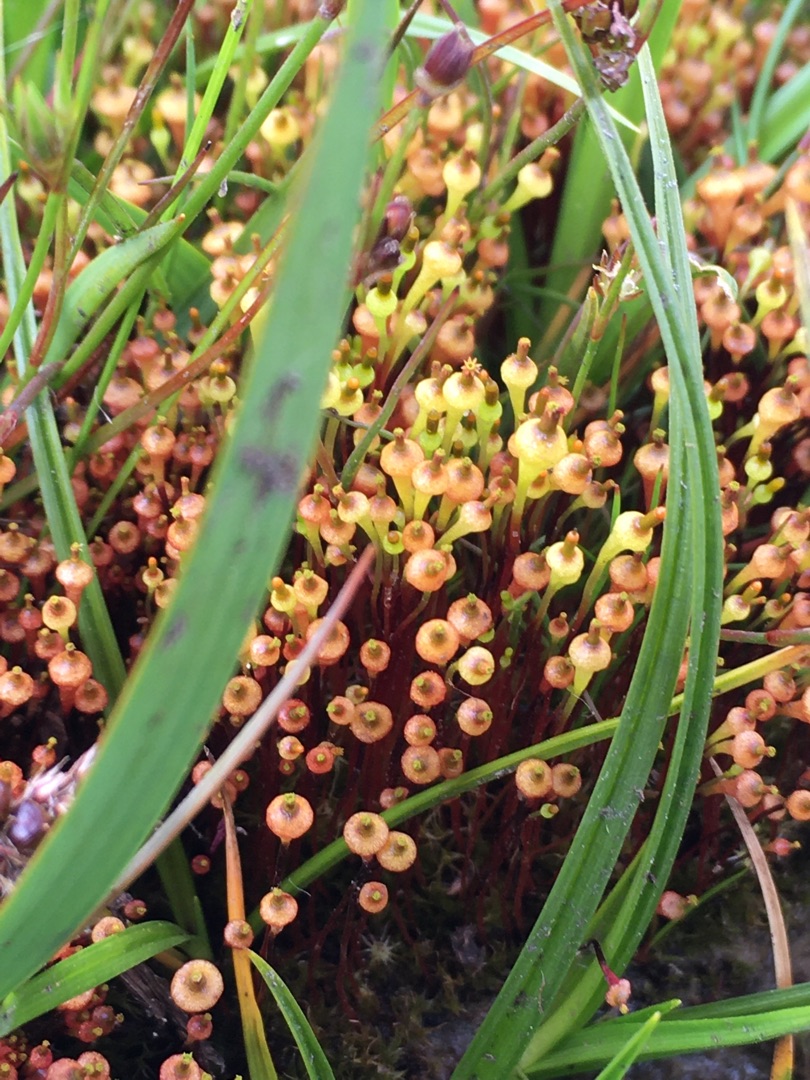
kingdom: Plantae
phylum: Bryophyta
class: Bryopsida
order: Splachnales
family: Splachnaceae
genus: Splachnum
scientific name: Splachnum ampullaceum
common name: Pære-møgmos
